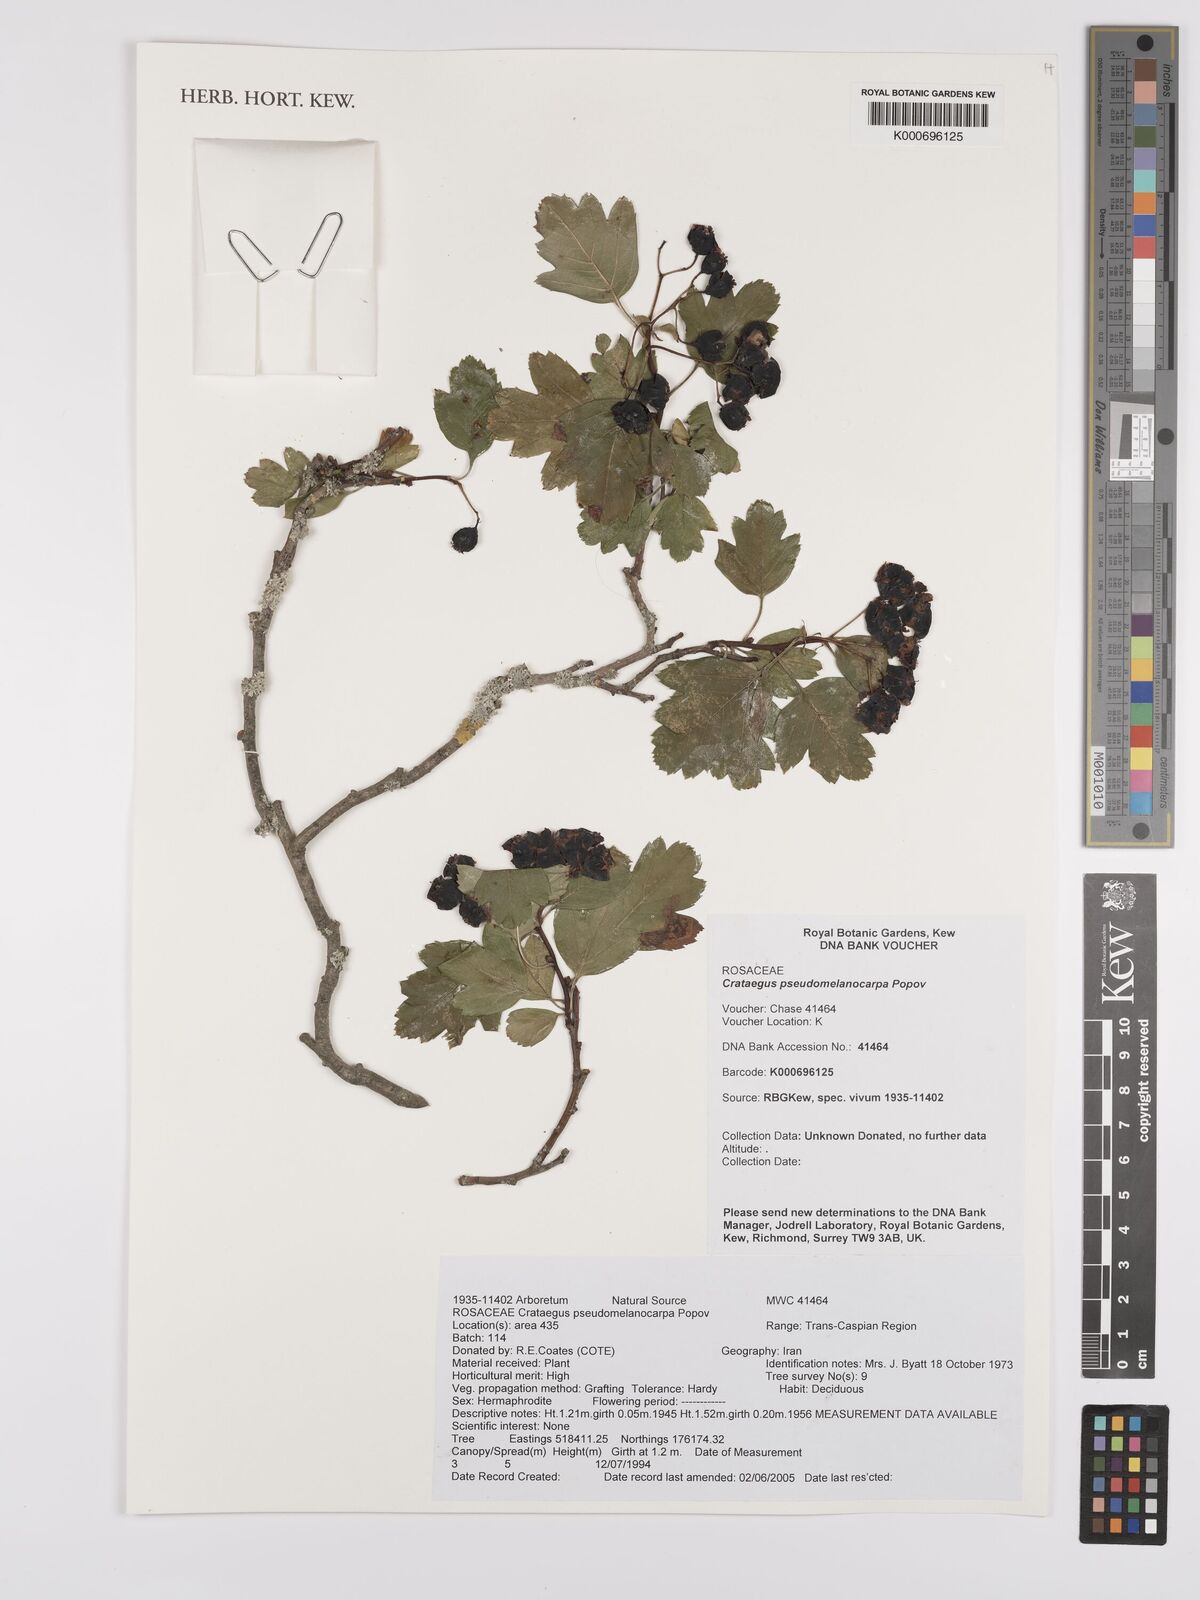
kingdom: Plantae
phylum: Tracheophyta
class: Magnoliopsida
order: Rosales
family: Rosaceae
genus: Crataegus
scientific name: Crataegus pentagyna
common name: Small-flowered black hawthorn
